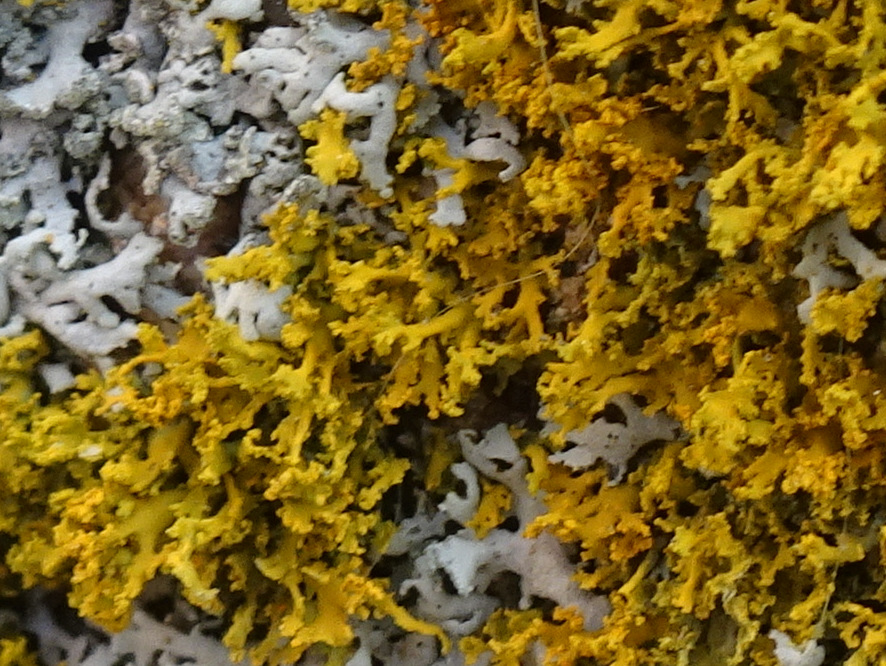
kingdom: Fungi
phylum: Ascomycota
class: Lecanoromycetes
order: Teloschistales
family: Teloschistaceae
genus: Polycauliona
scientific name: Polycauliona candelaria
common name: tue-orangelav
